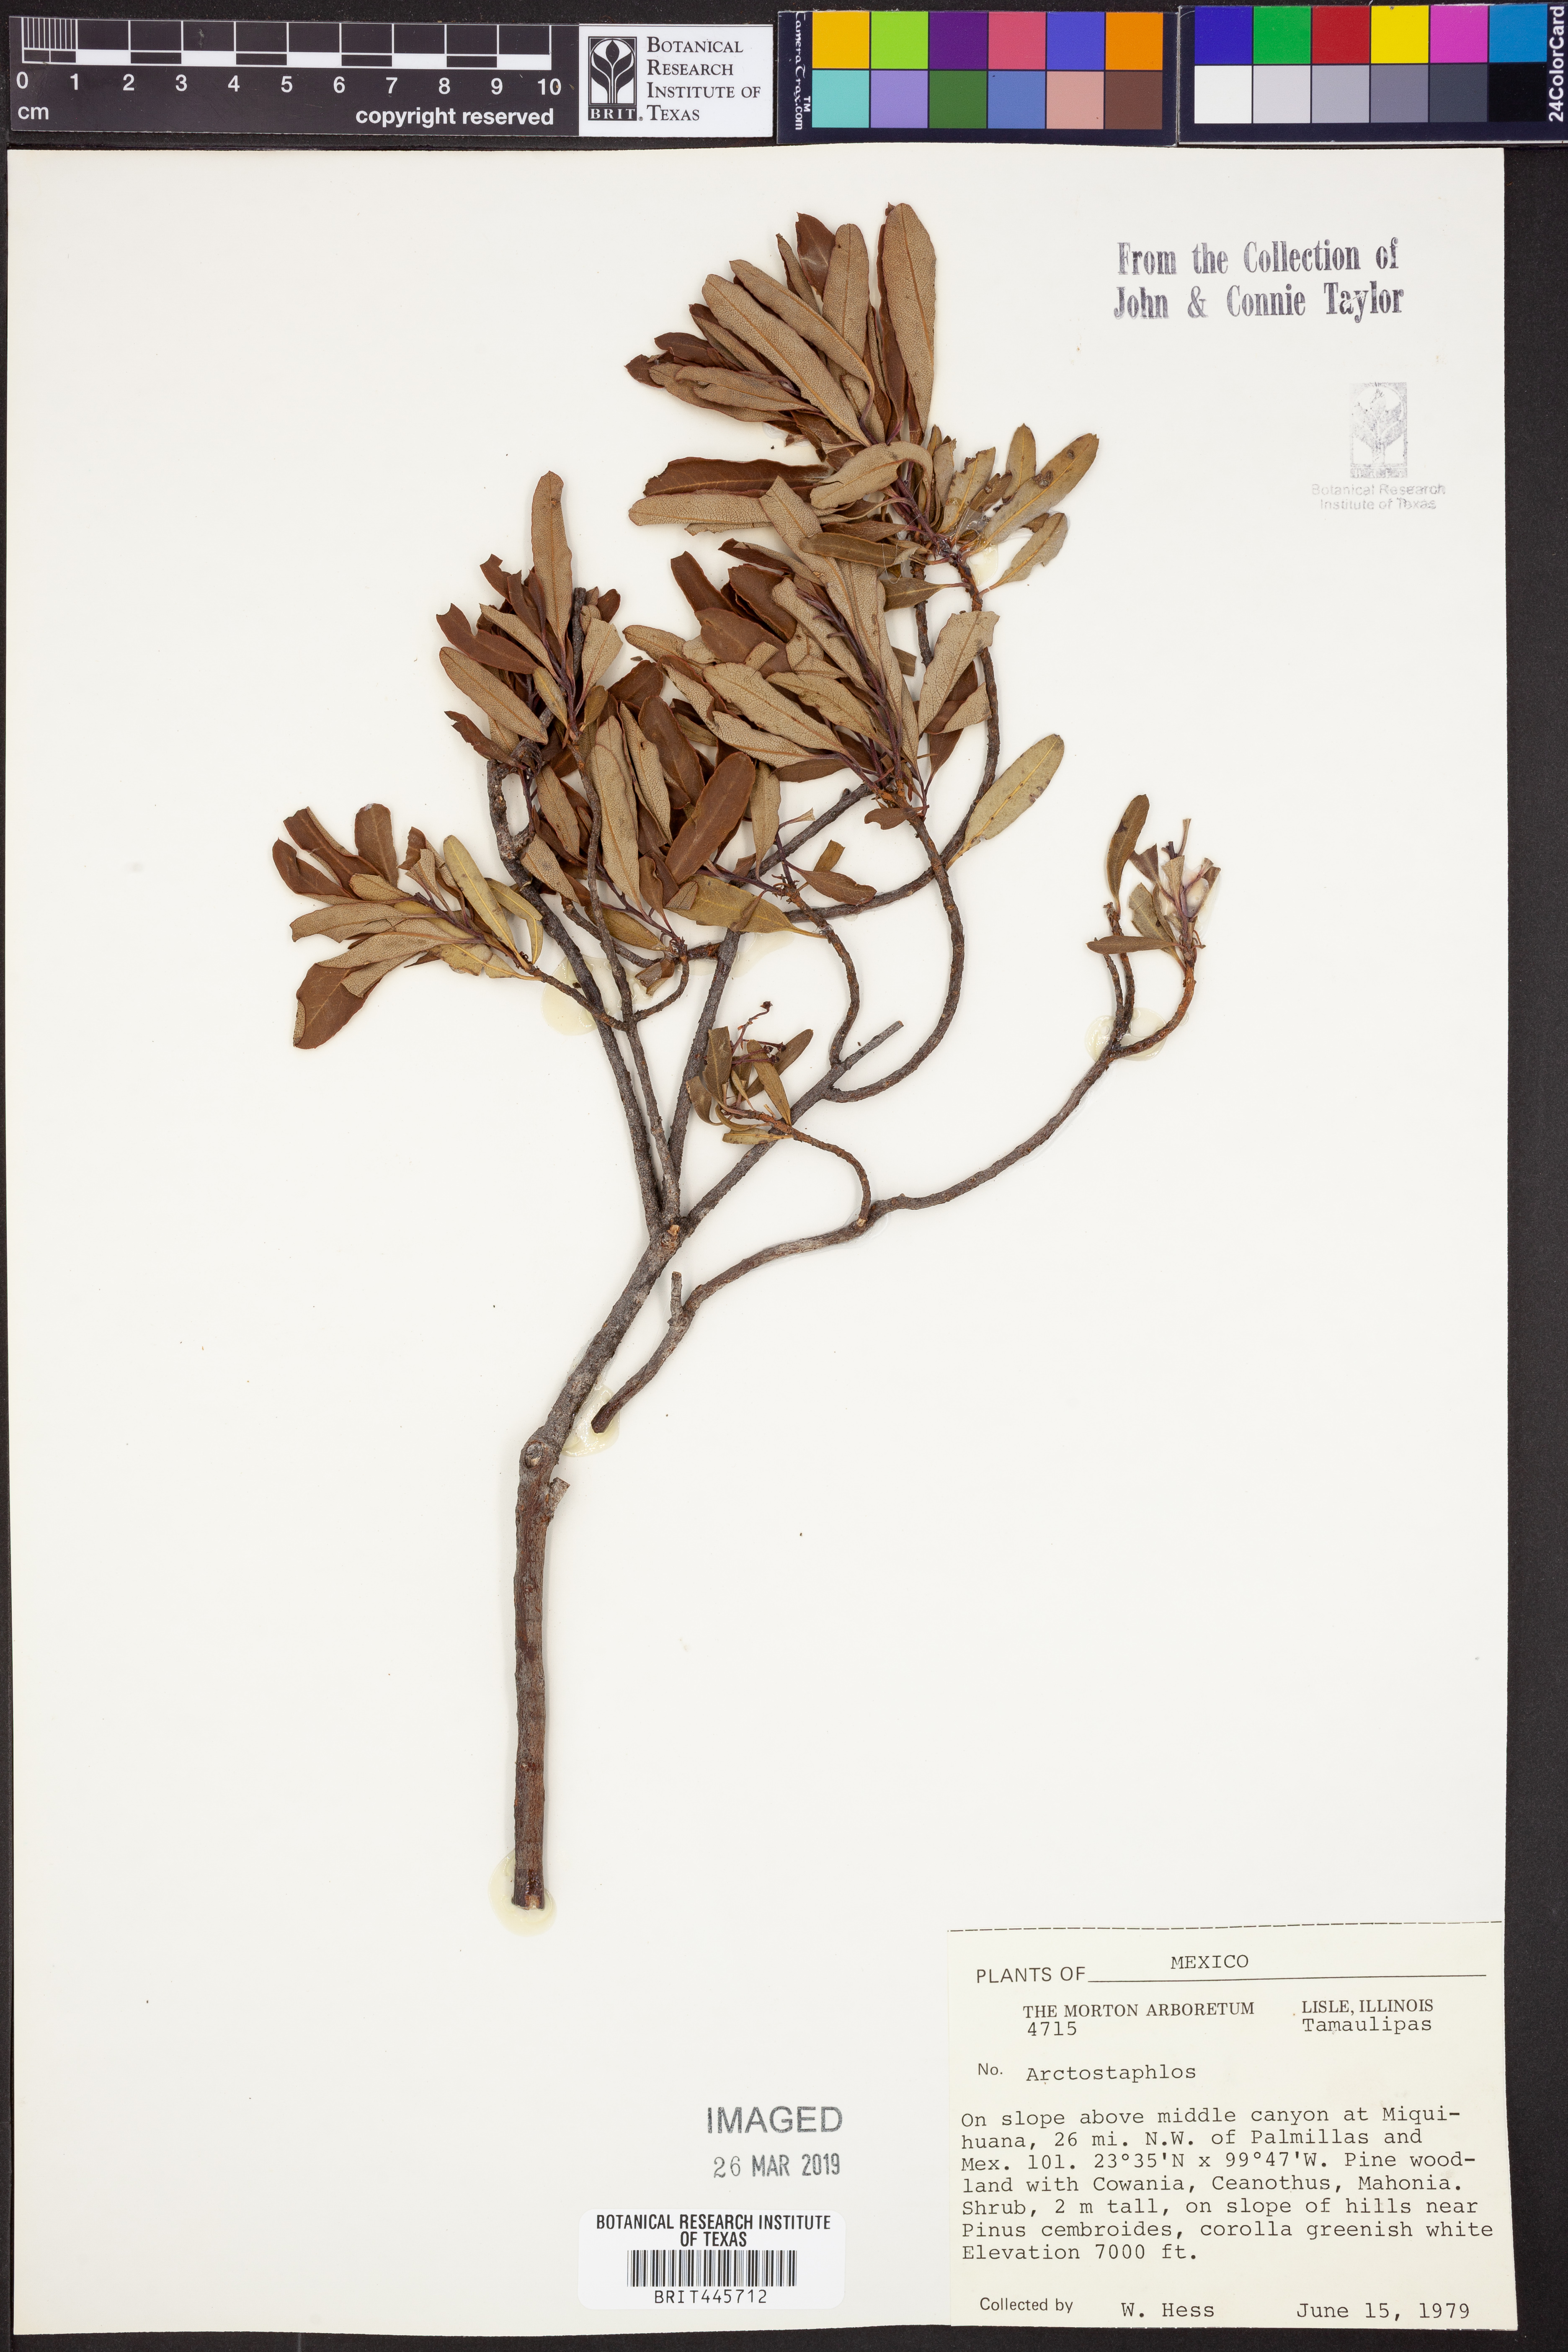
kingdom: Plantae
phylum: Tracheophyta
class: Magnoliopsida
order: Ericales
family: Ericaceae
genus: Arctostaphylos
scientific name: Arctostaphylos
